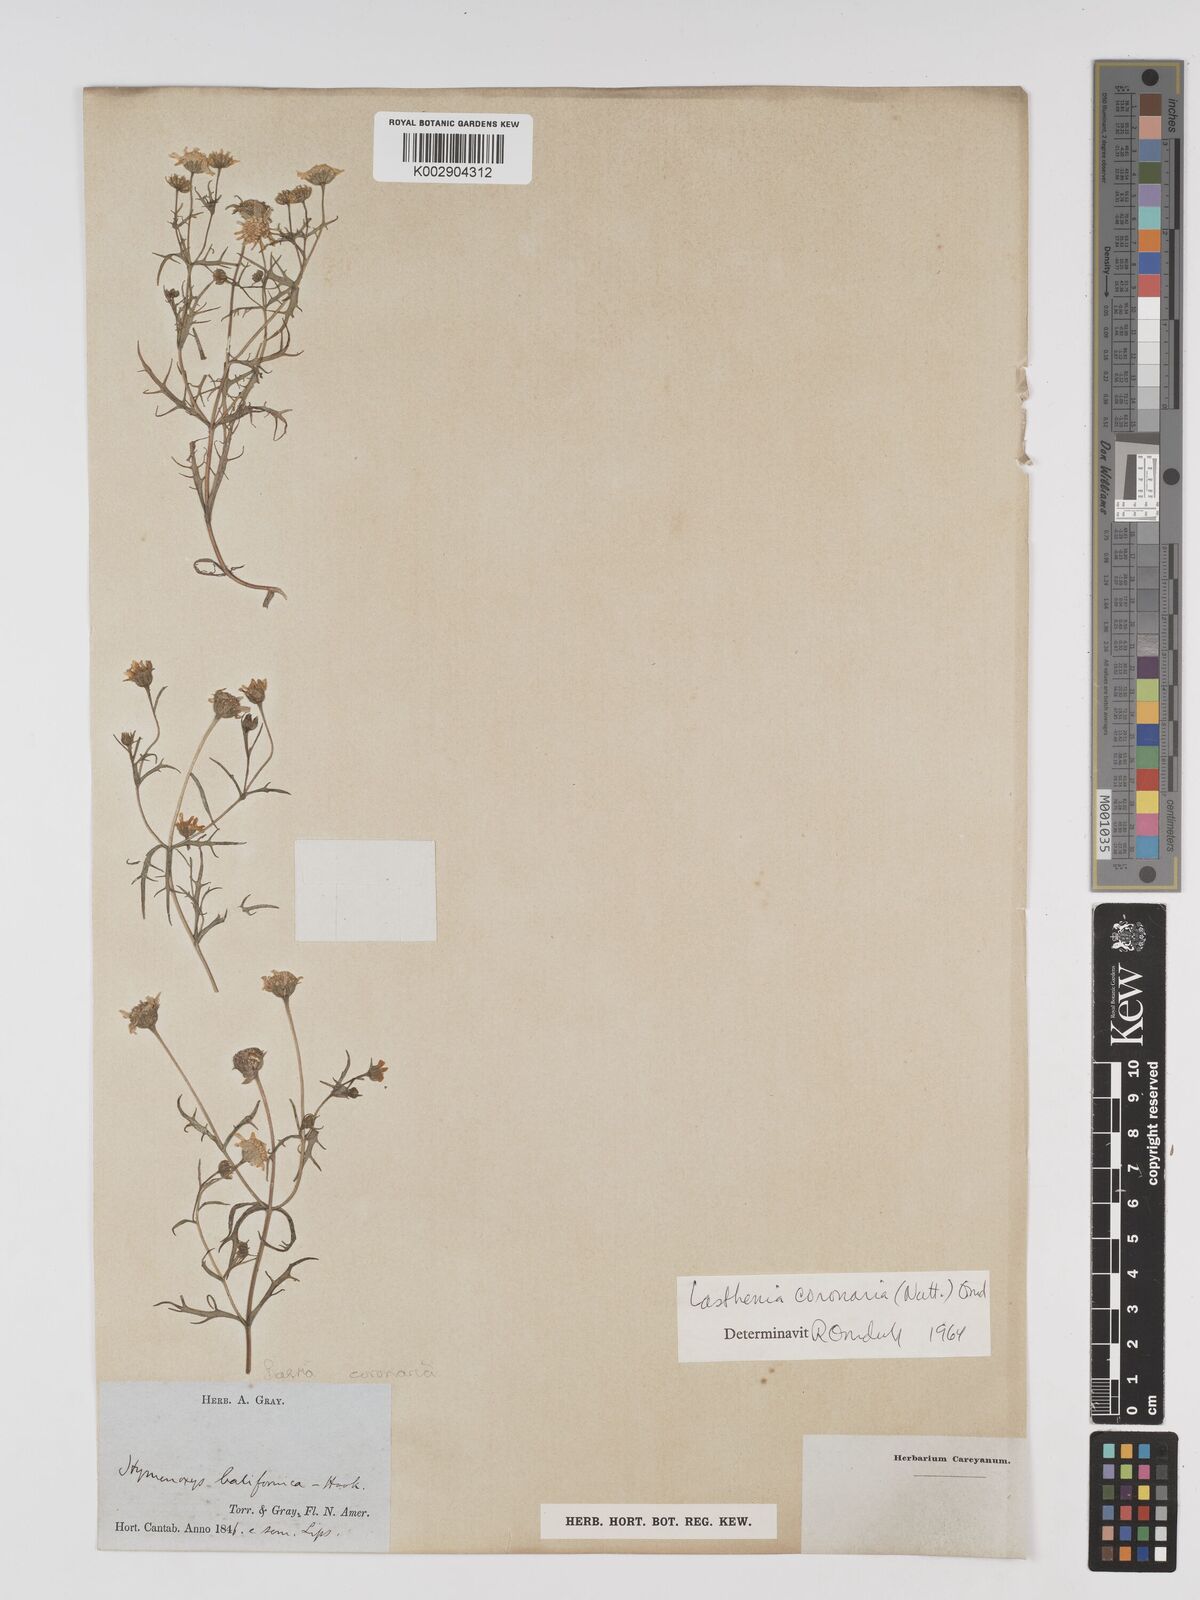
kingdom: Plantae
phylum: Tracheophyta
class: Magnoliopsida
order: Asterales
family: Asteraceae
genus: Lasthenia
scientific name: Lasthenia coronaria
